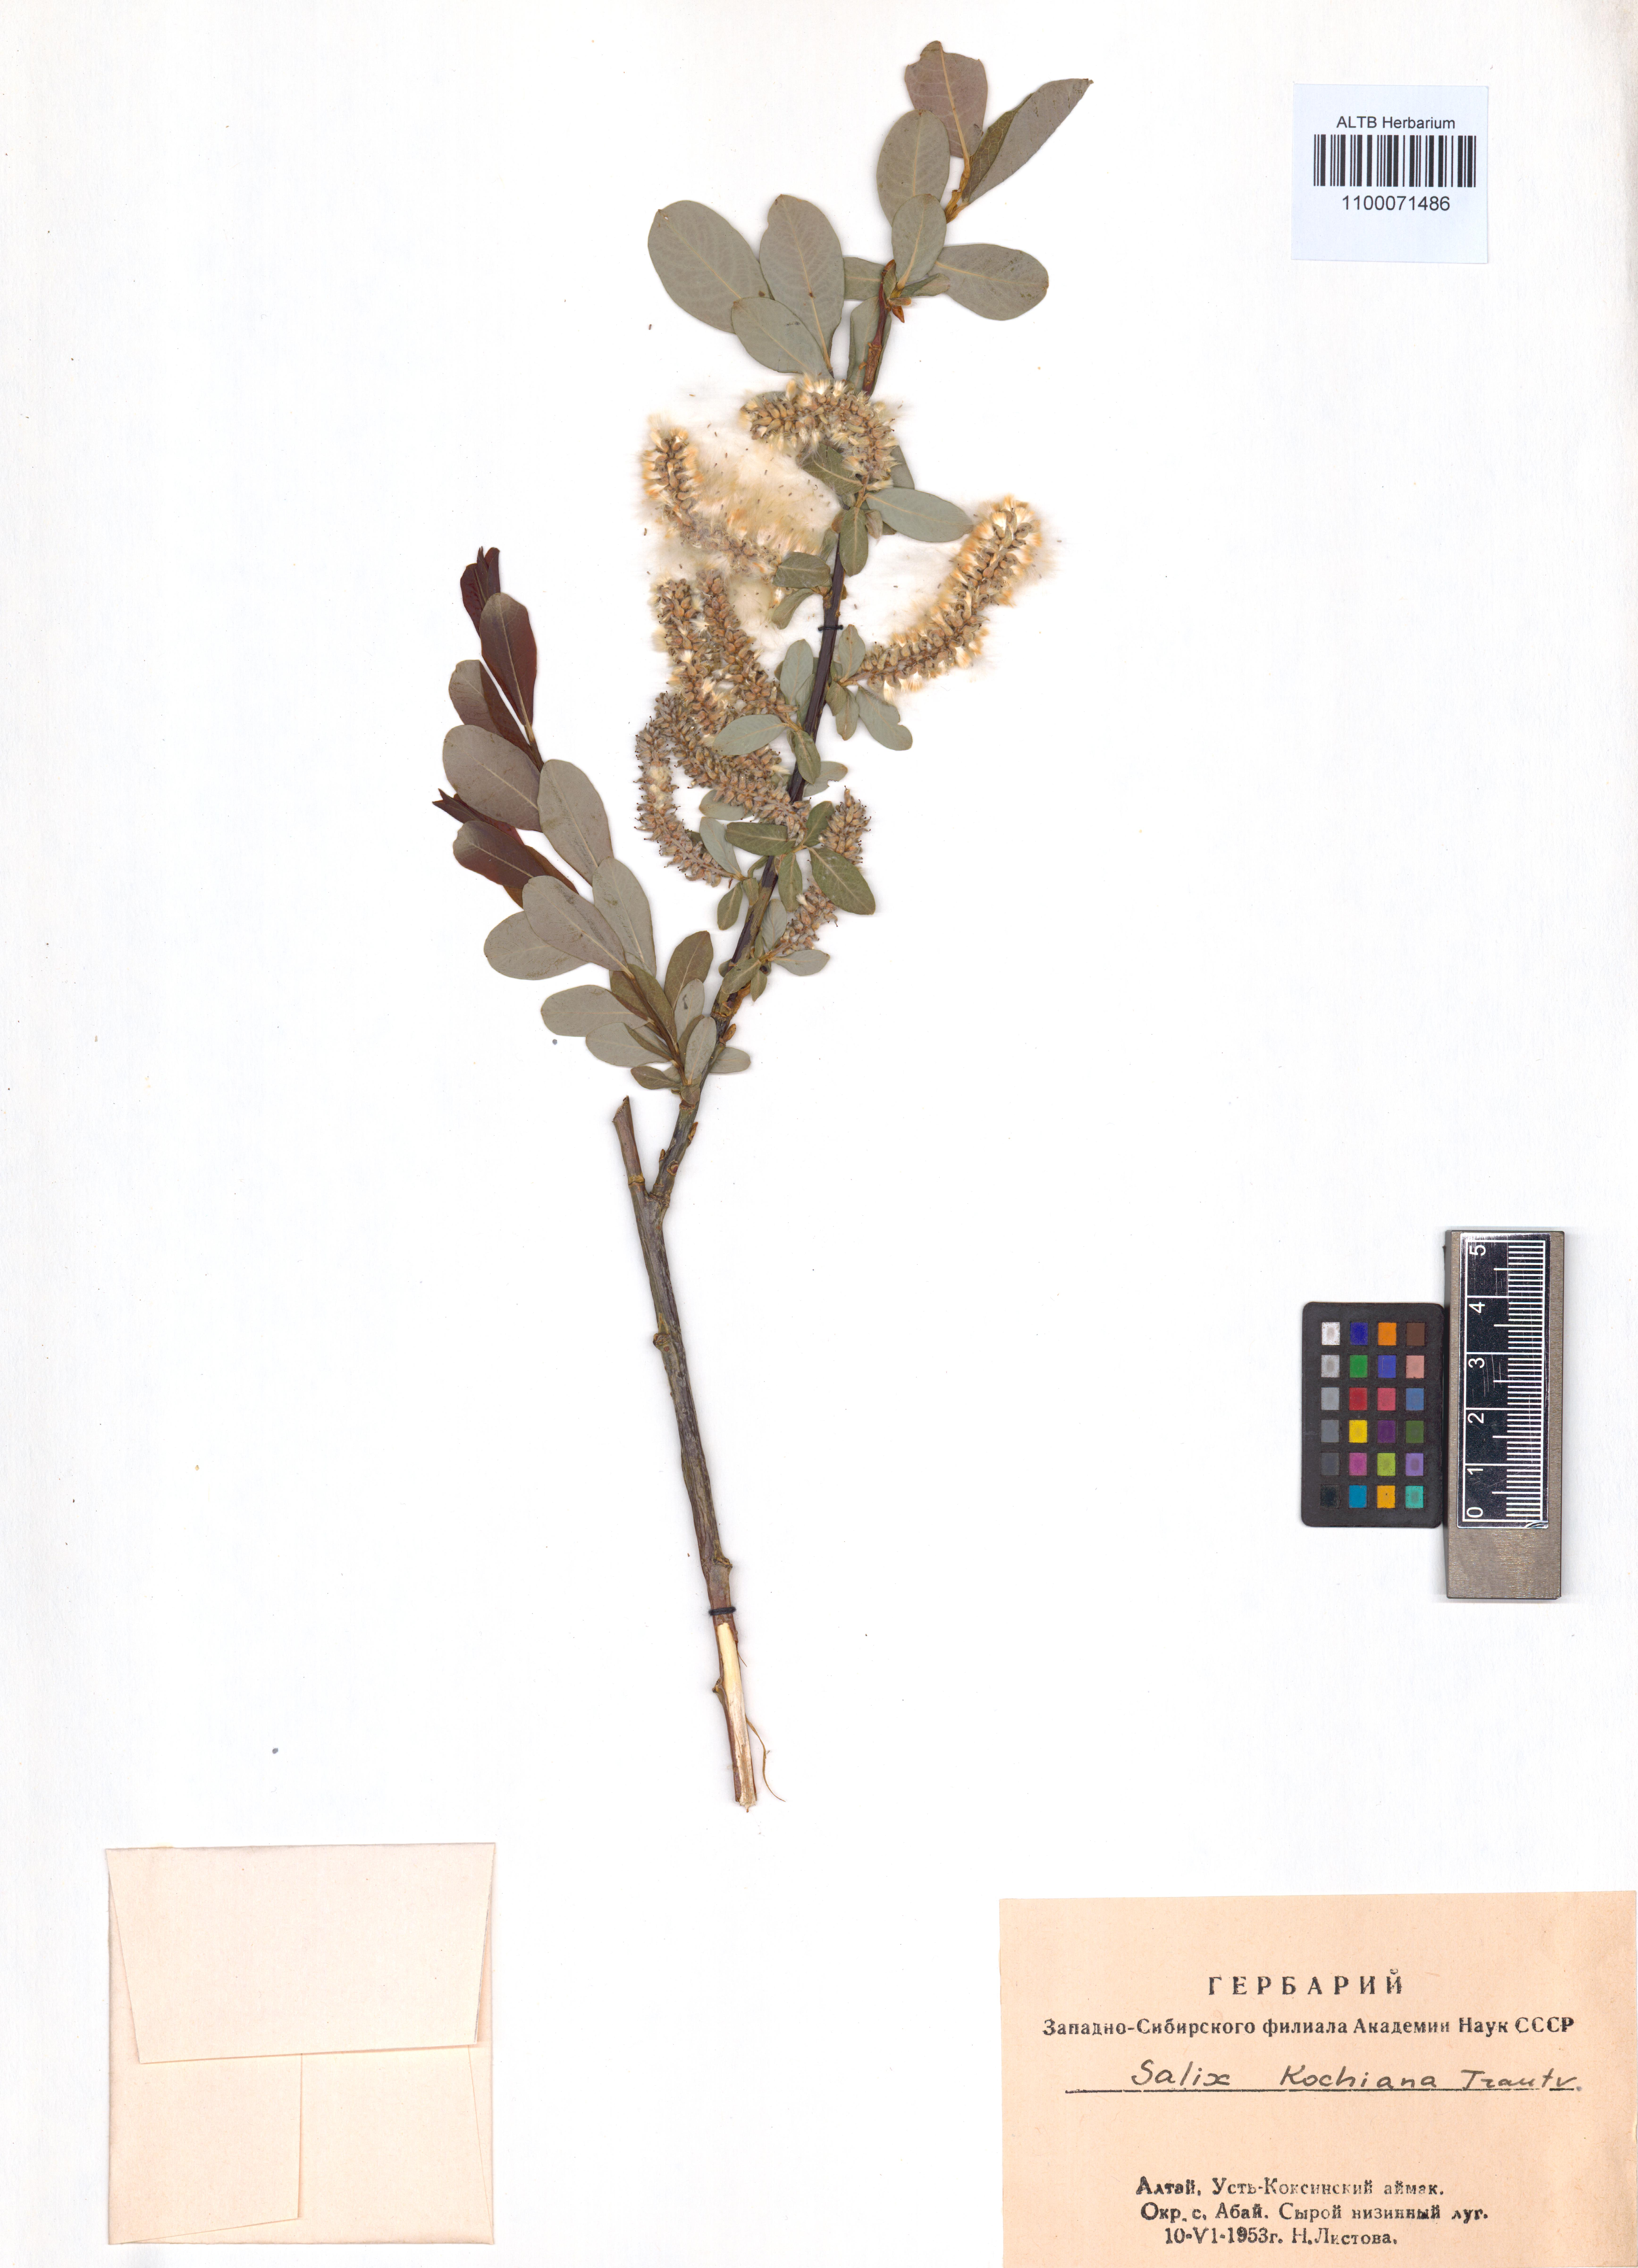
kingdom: Plantae
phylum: Tracheophyta
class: Magnoliopsida
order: Malpighiales
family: Salicaceae
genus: Salix
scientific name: Salix kochiana
